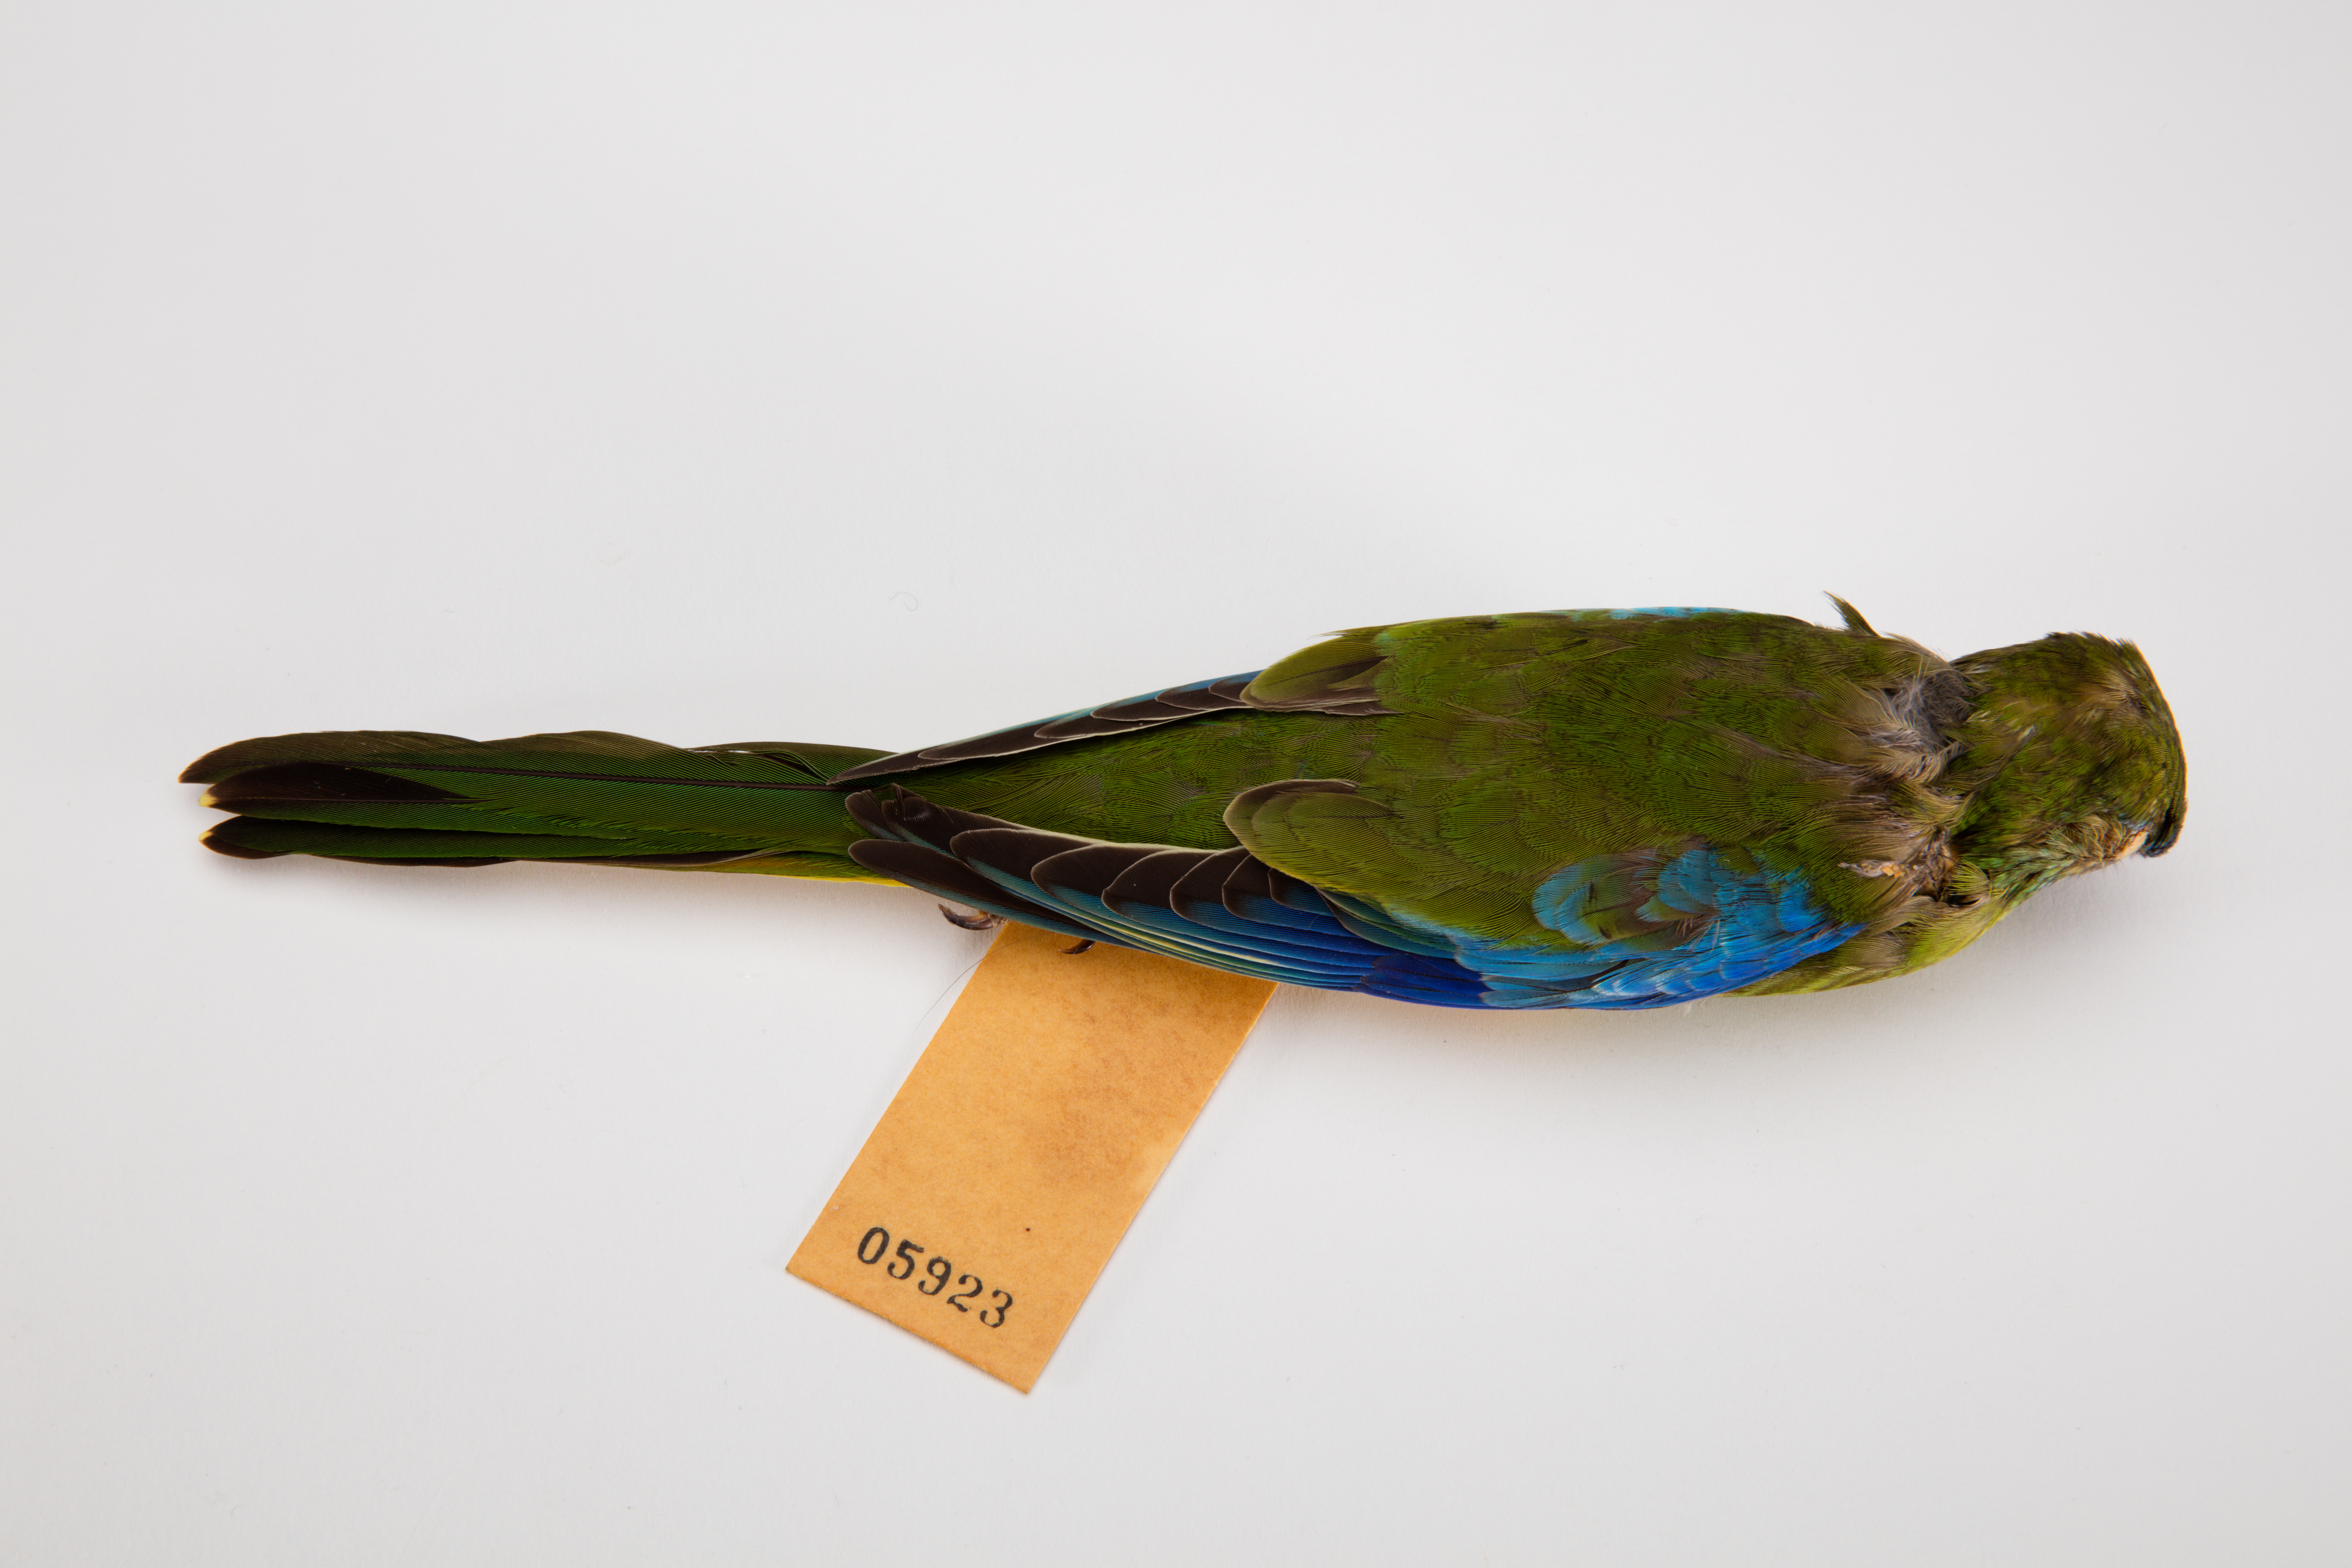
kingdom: Animalia
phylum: Chordata
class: Aves
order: Psittaciformes
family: Psittacidae
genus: Neophema
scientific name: Neophema pulchella
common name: Turquoise parrot
